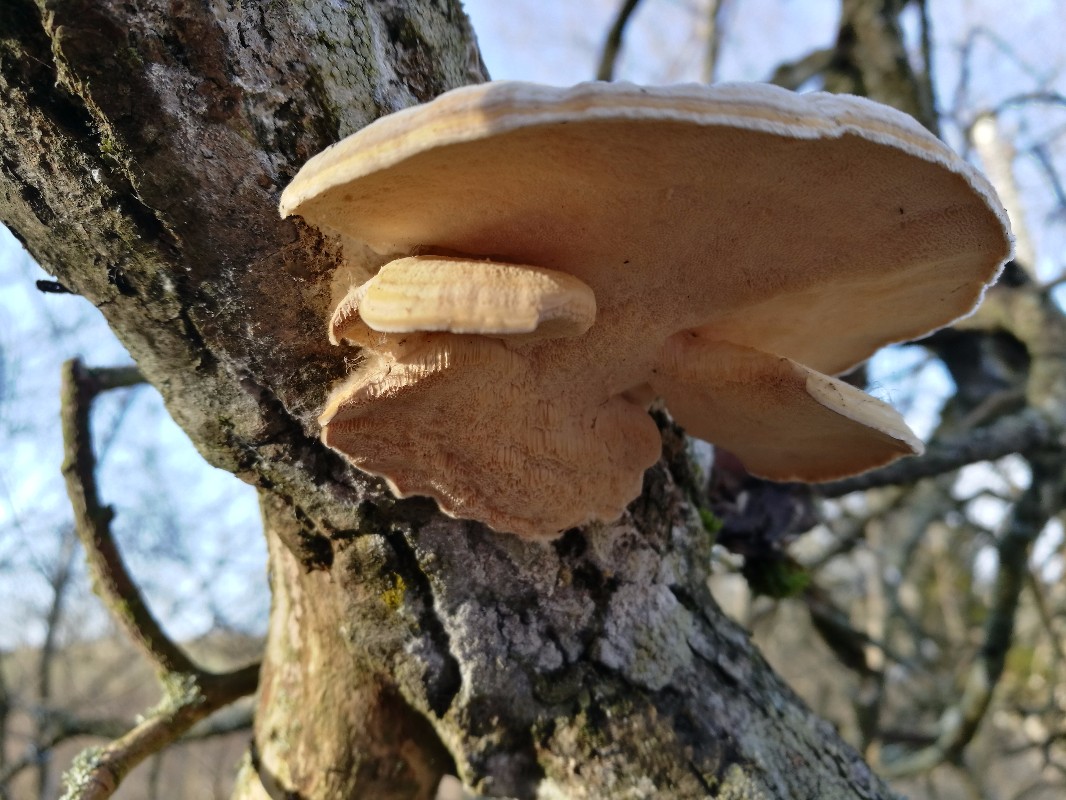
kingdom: Fungi
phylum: Basidiomycota
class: Agaricomycetes
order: Polyporales
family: Polyporaceae
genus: Trametes
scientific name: Trametes ochracea
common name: bæltet læderporesvamp
